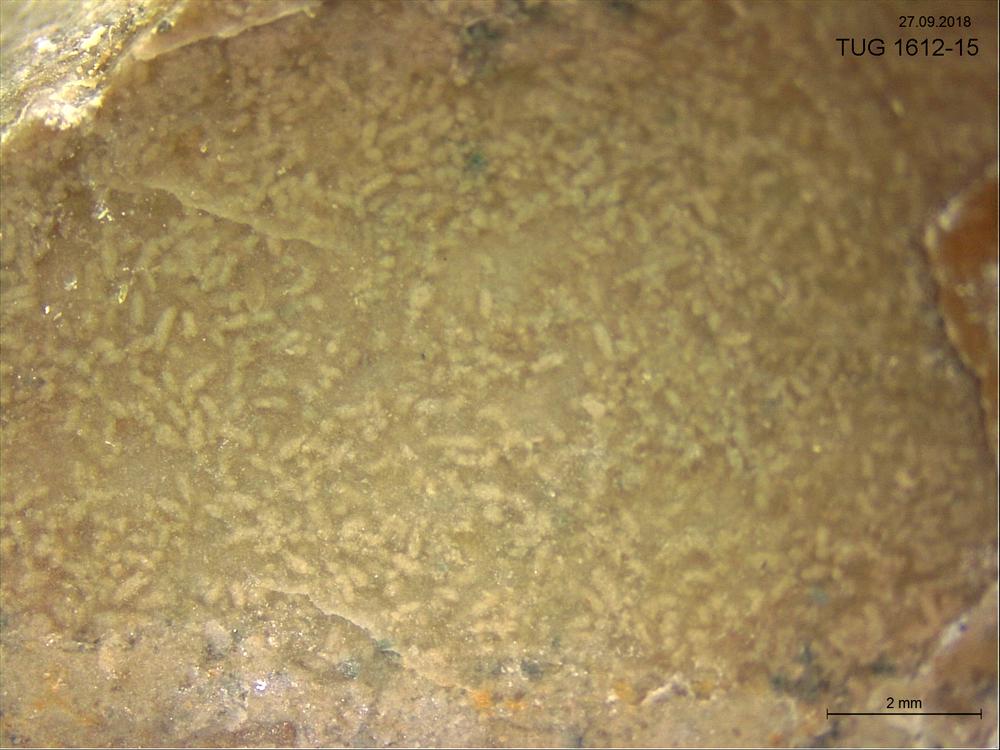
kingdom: Animalia
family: Coprulidae
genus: Coprulus
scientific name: Coprulus
